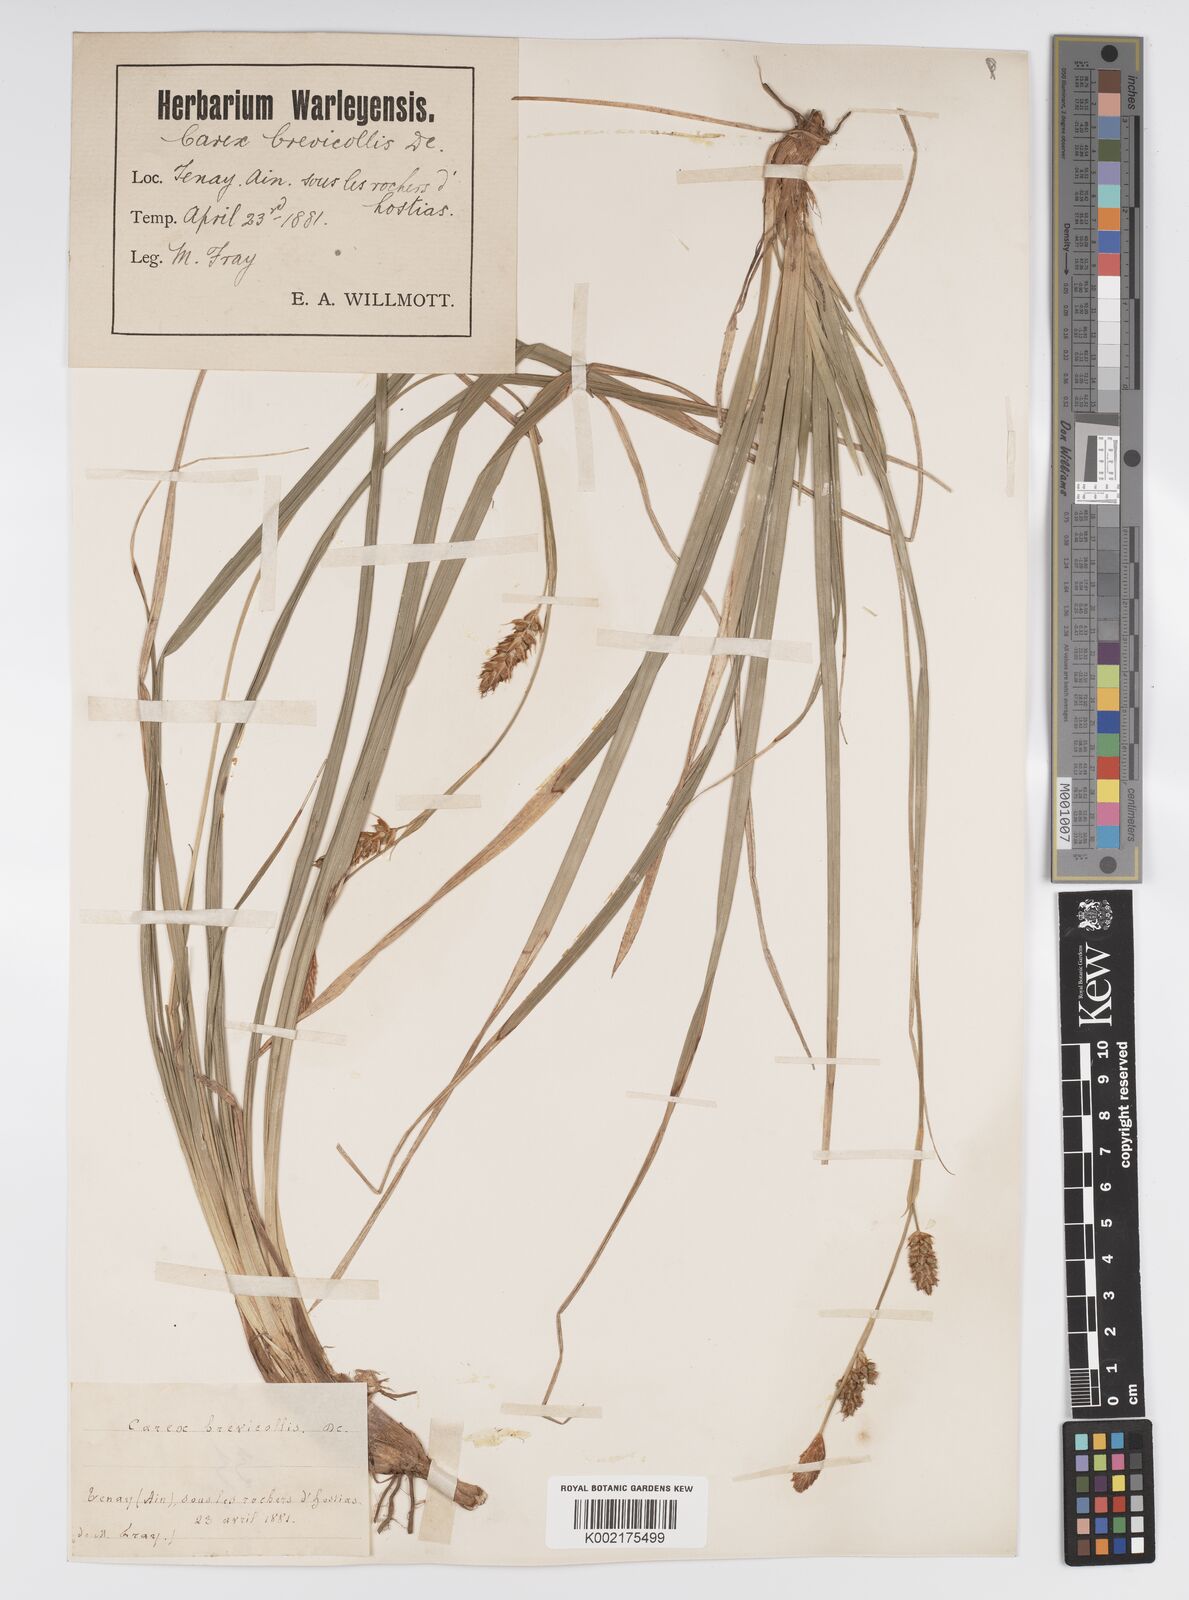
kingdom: Plantae
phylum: Tracheophyta
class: Liliopsida
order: Poales
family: Cyperaceae
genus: Carex
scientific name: Carex brevicollis
